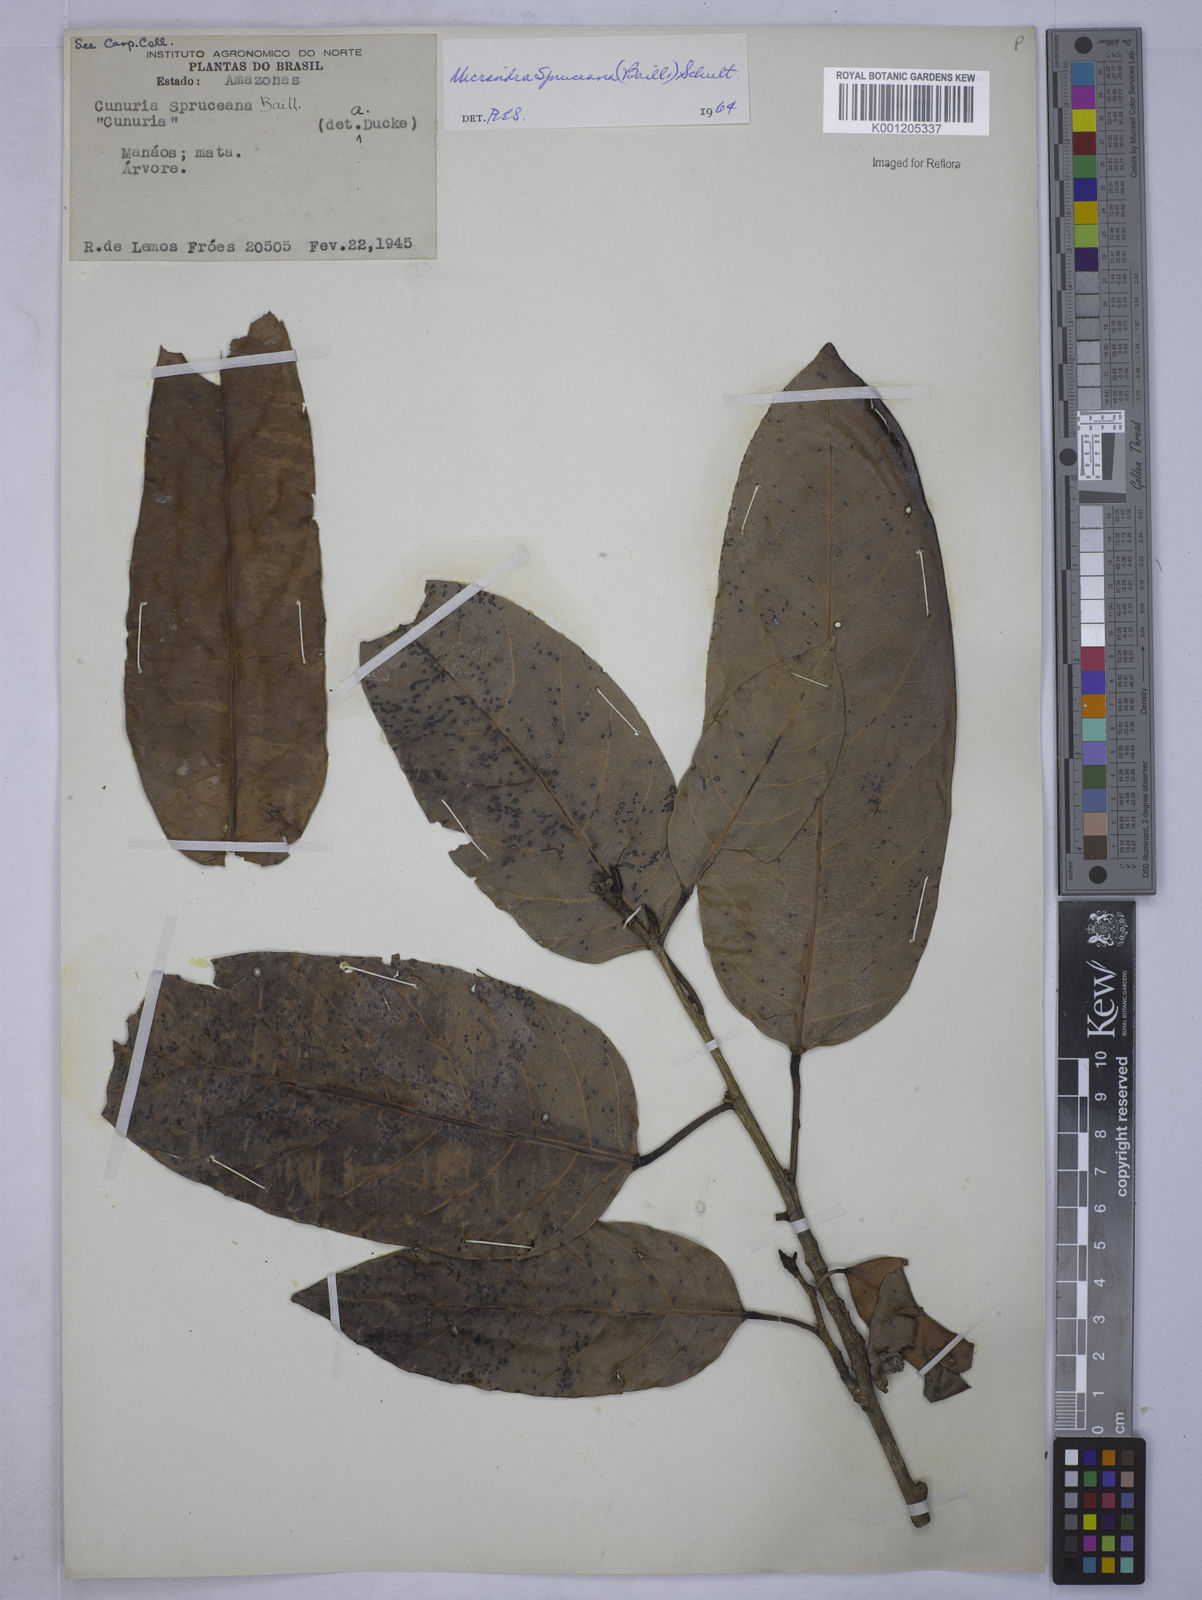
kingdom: Plantae
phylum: Tracheophyta
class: Magnoliopsida
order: Malpighiales
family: Euphorbiaceae
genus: Micrandra
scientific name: Micrandra
